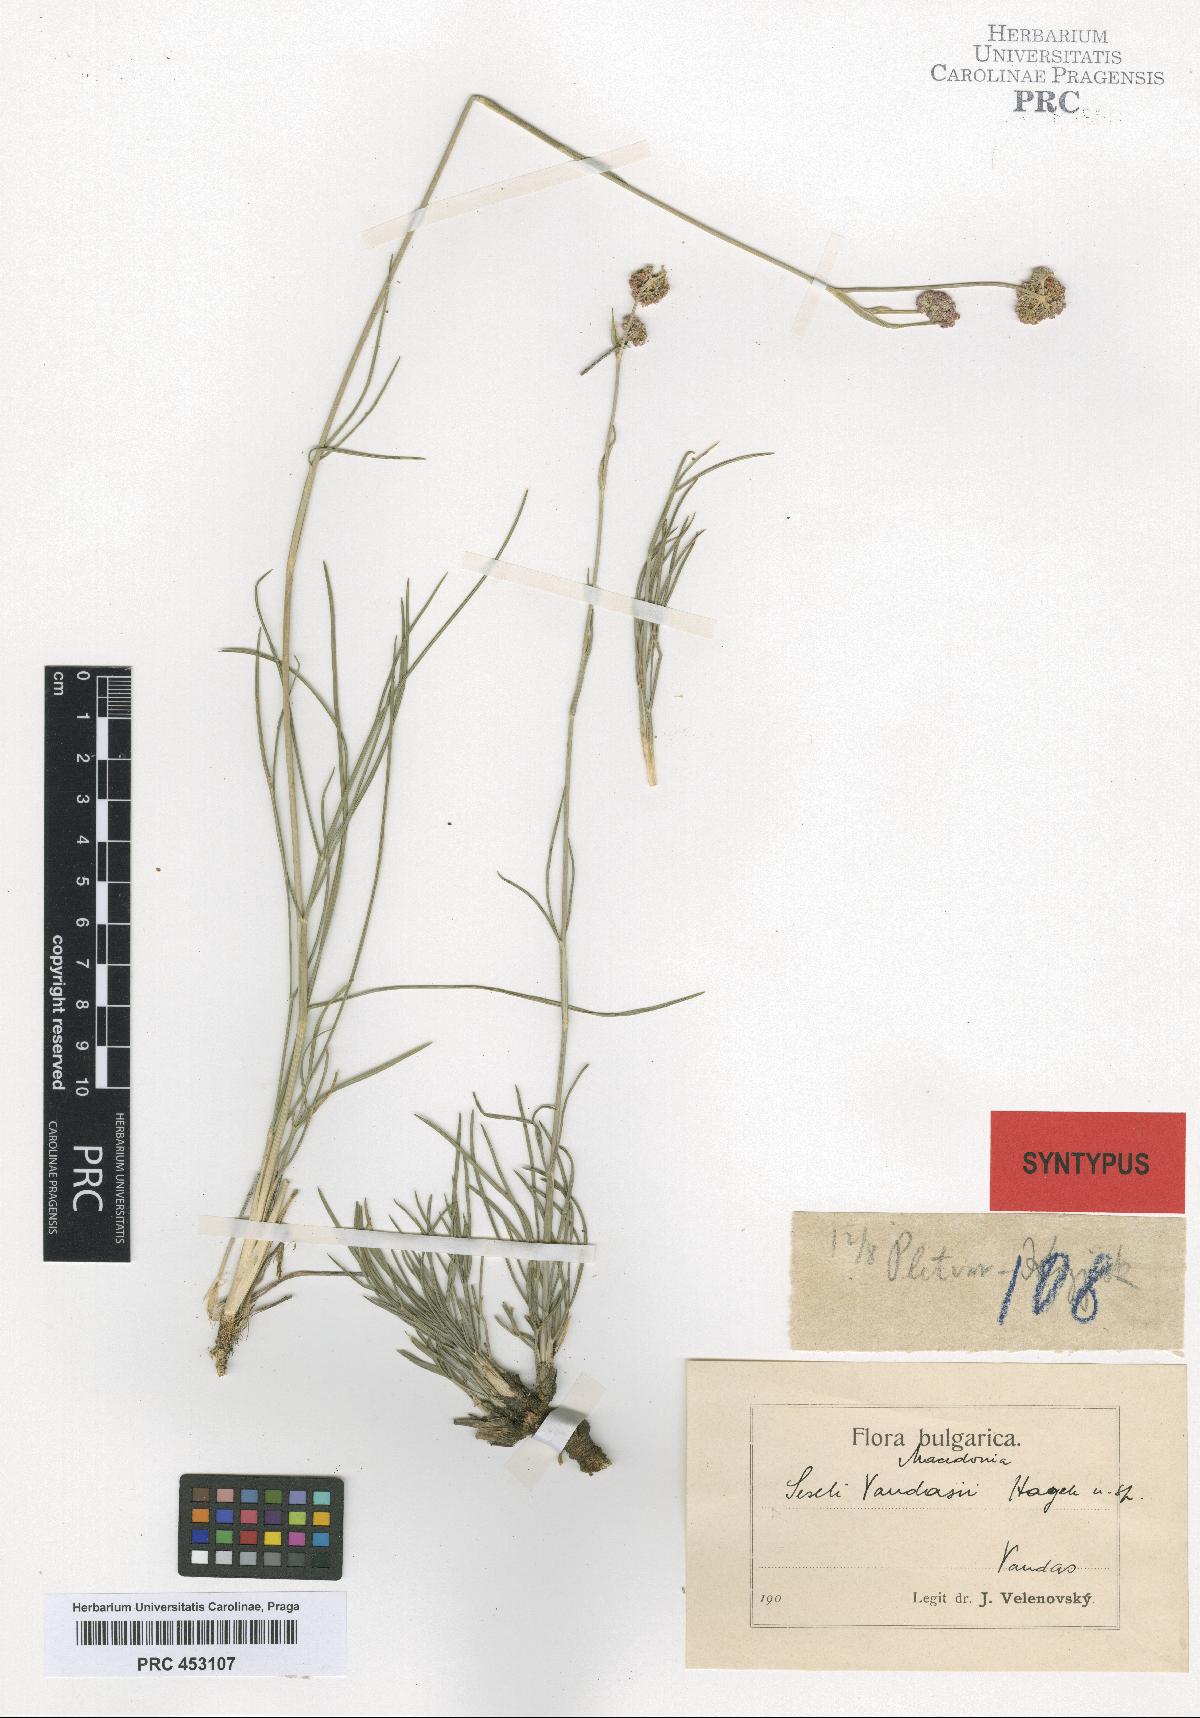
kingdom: Plantae
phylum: Tracheophyta
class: Magnoliopsida
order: Apiales
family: Apiaceae
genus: Seseli
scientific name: Seseli vandasii
